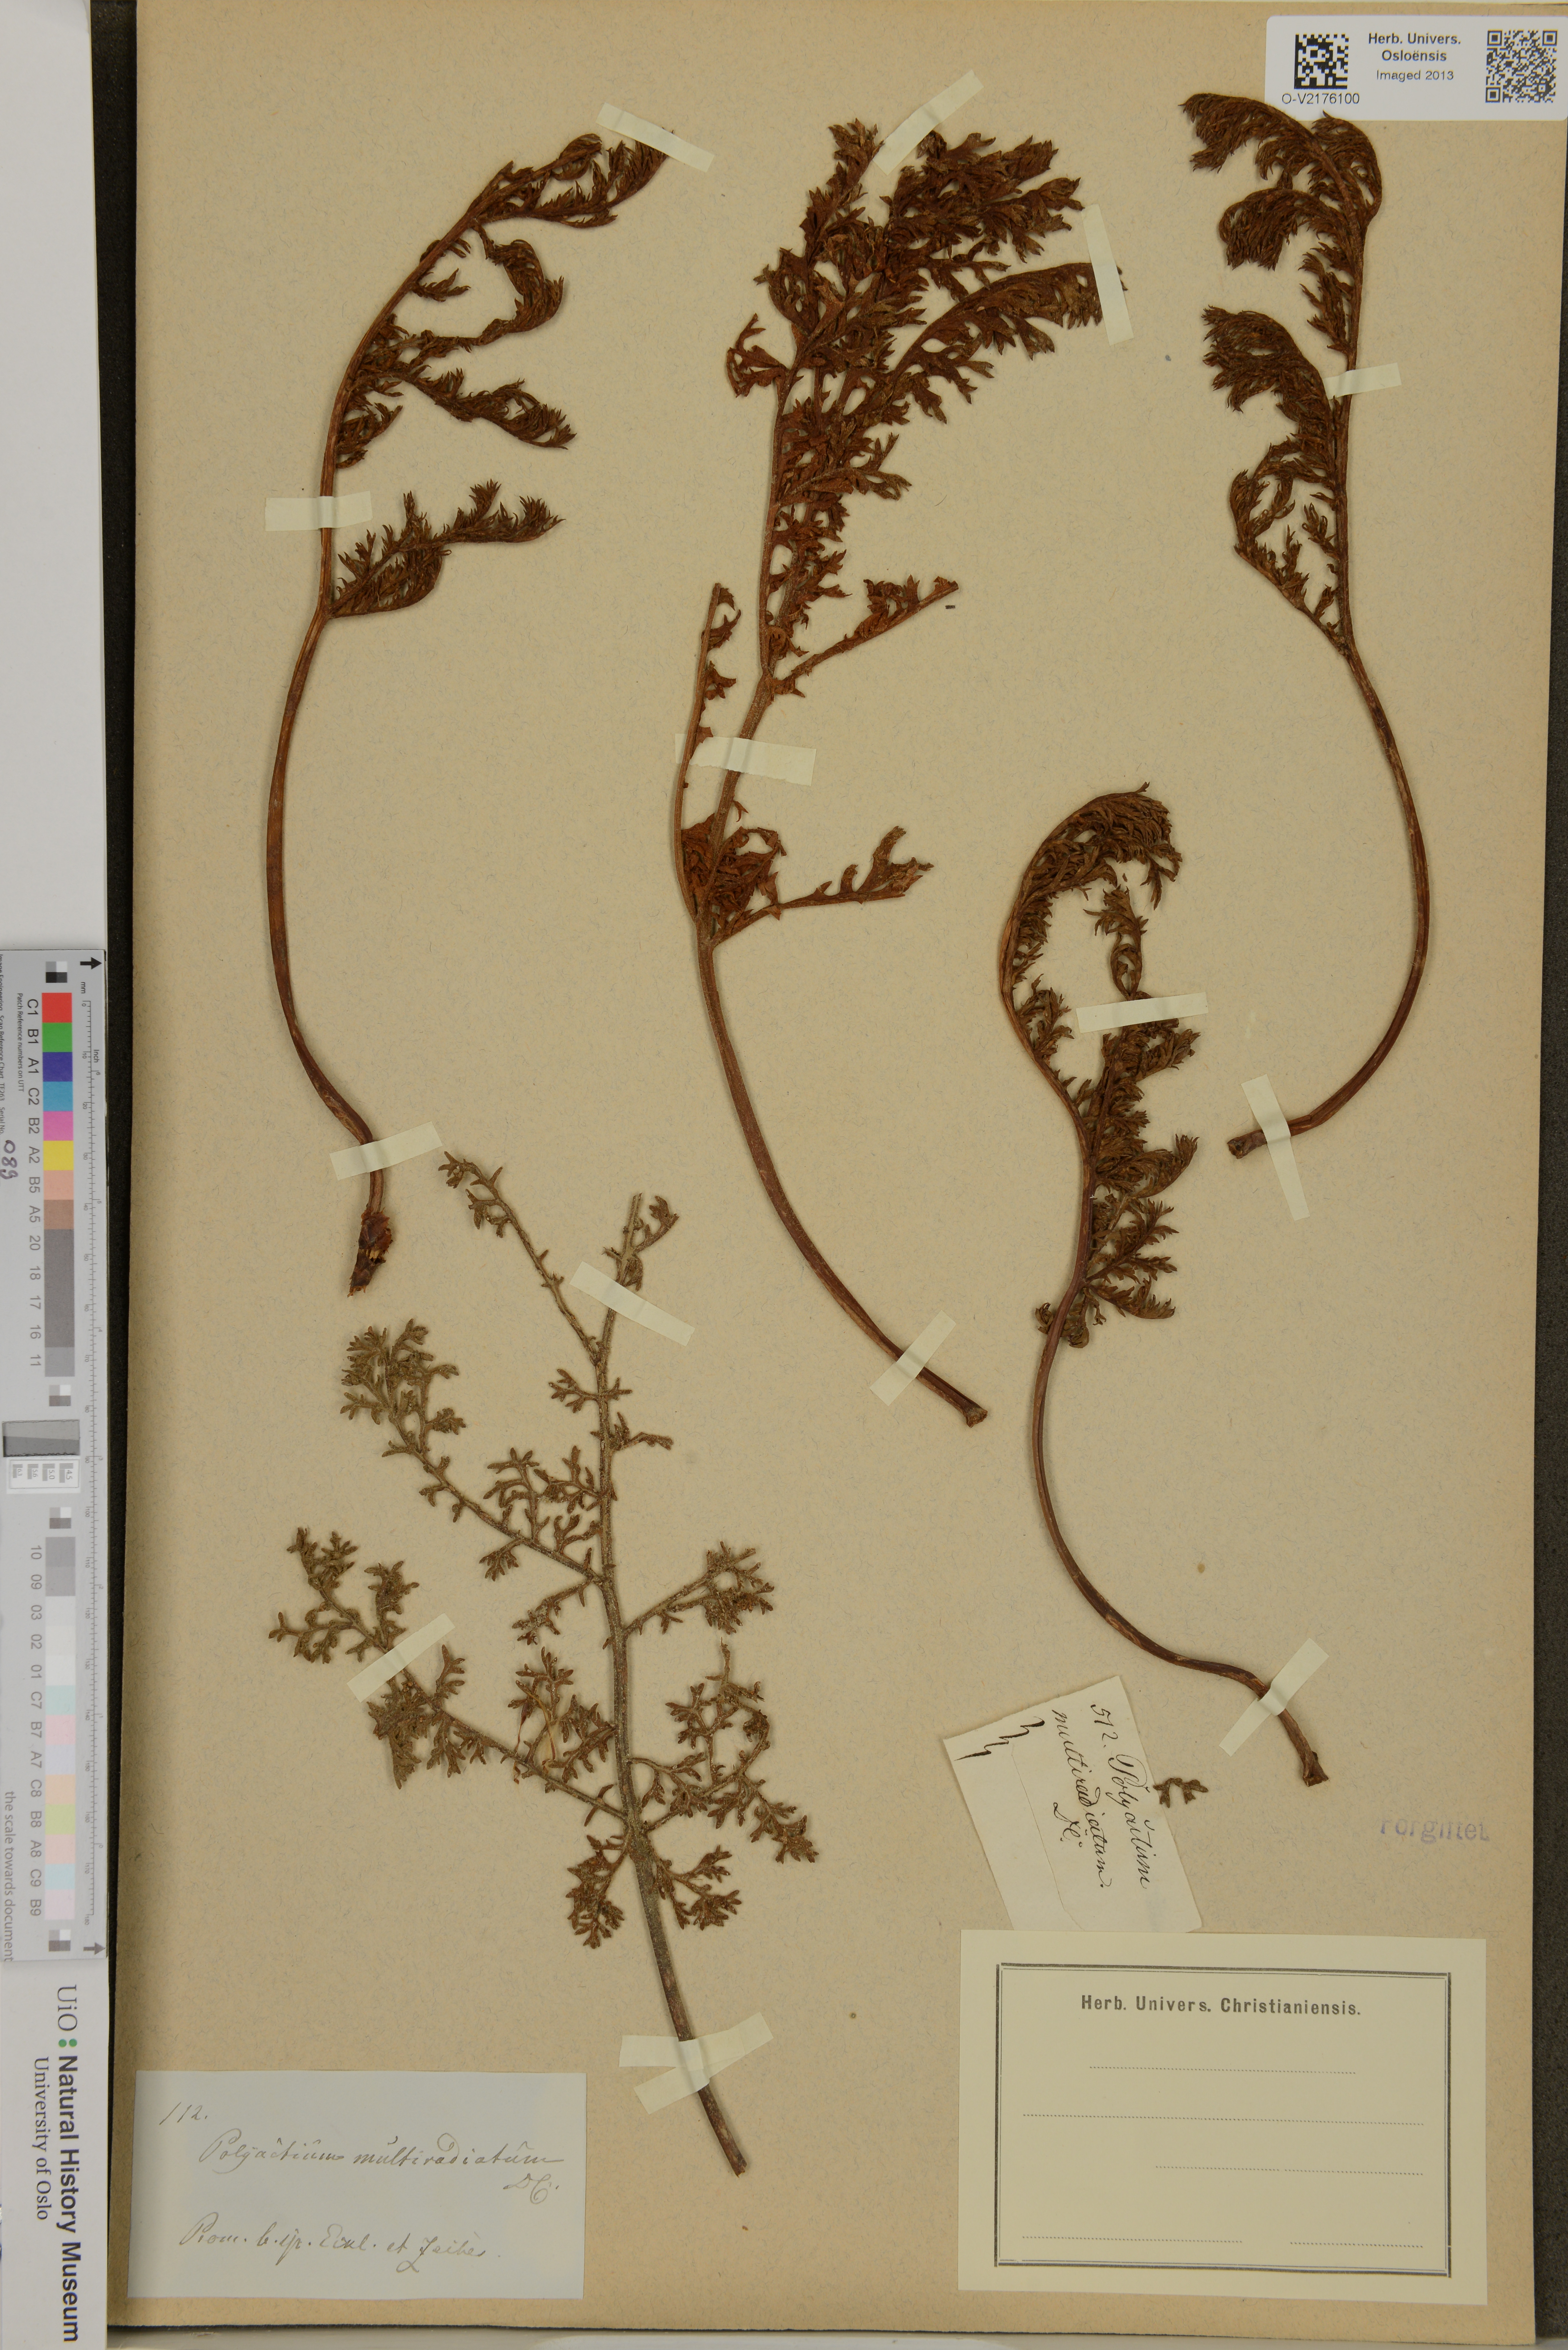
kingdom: Plantae
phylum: Tracheophyta
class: Magnoliopsida
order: Geraniales
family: Geraniaceae
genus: Pelargonium
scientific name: Pelargonium
